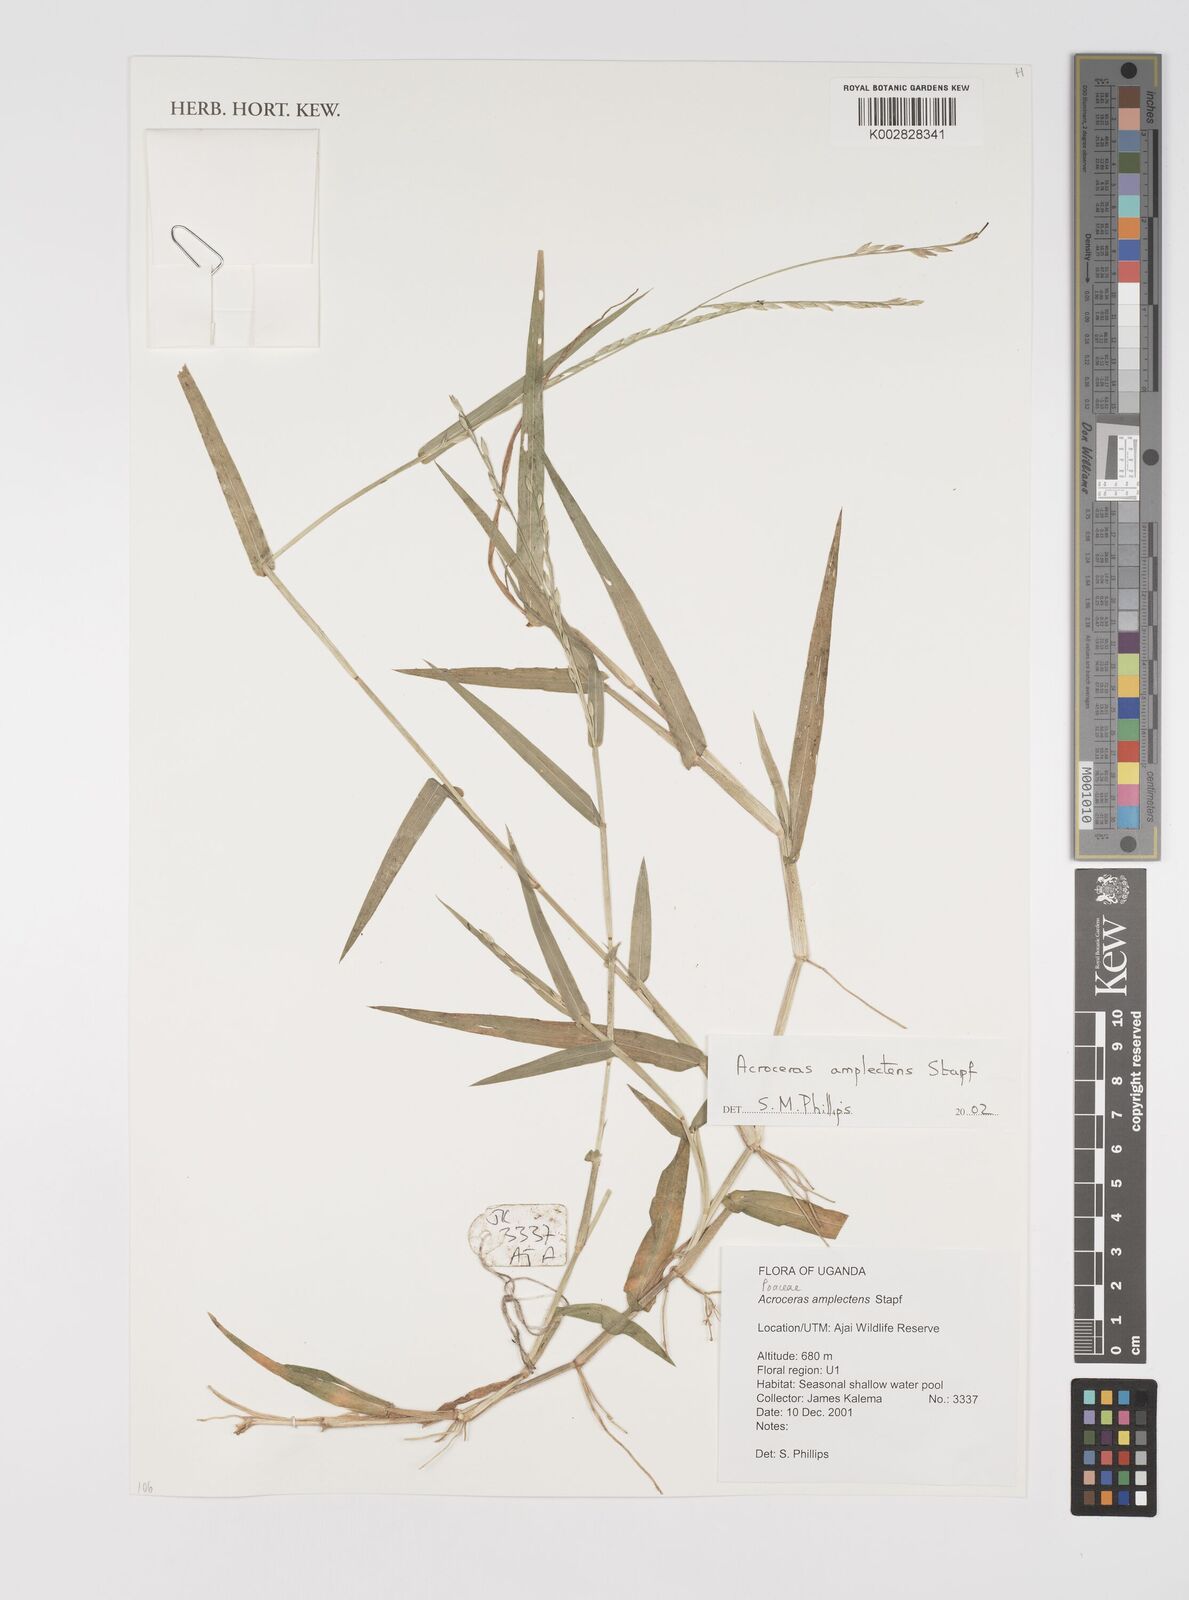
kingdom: Plantae
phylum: Tracheophyta
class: Liliopsida
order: Poales
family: Poaceae
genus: Acroceras
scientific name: Acroceras amplectens
